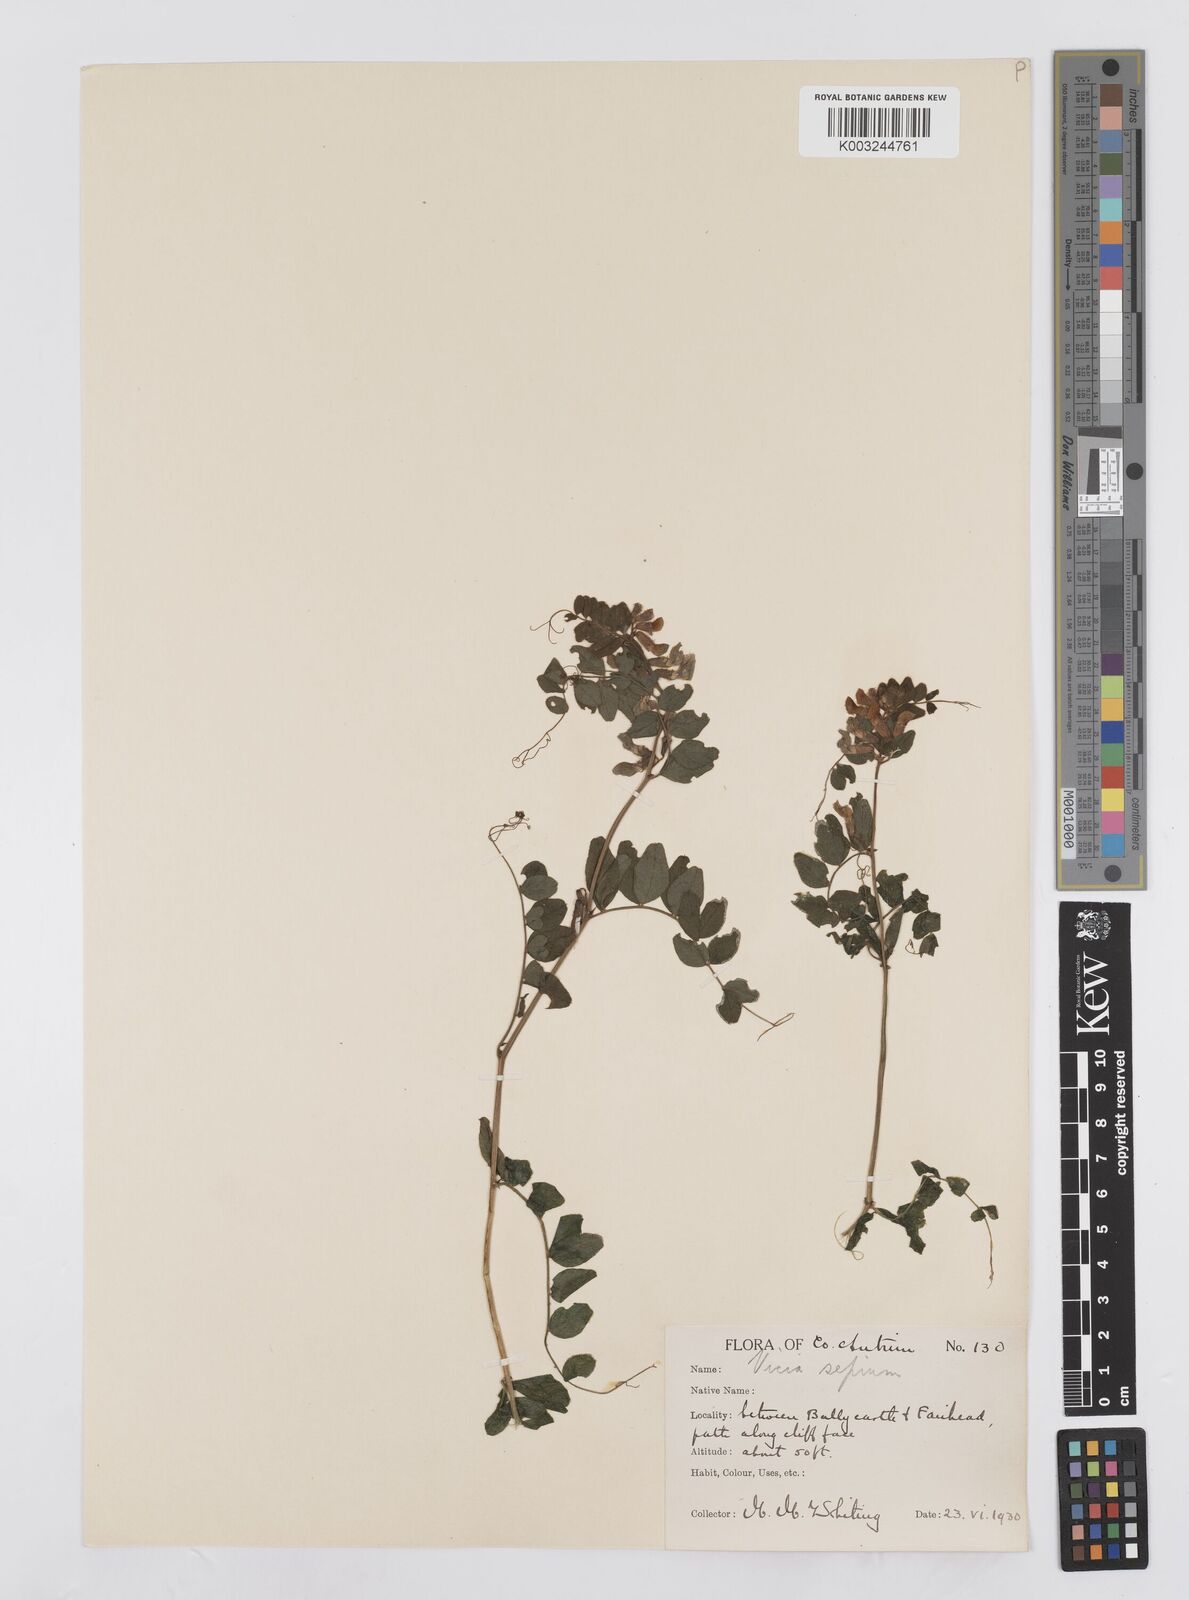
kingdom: Plantae
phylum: Tracheophyta
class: Magnoliopsida
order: Fabales
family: Fabaceae
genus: Vicia
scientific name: Vicia sepium
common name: Bush vetch
